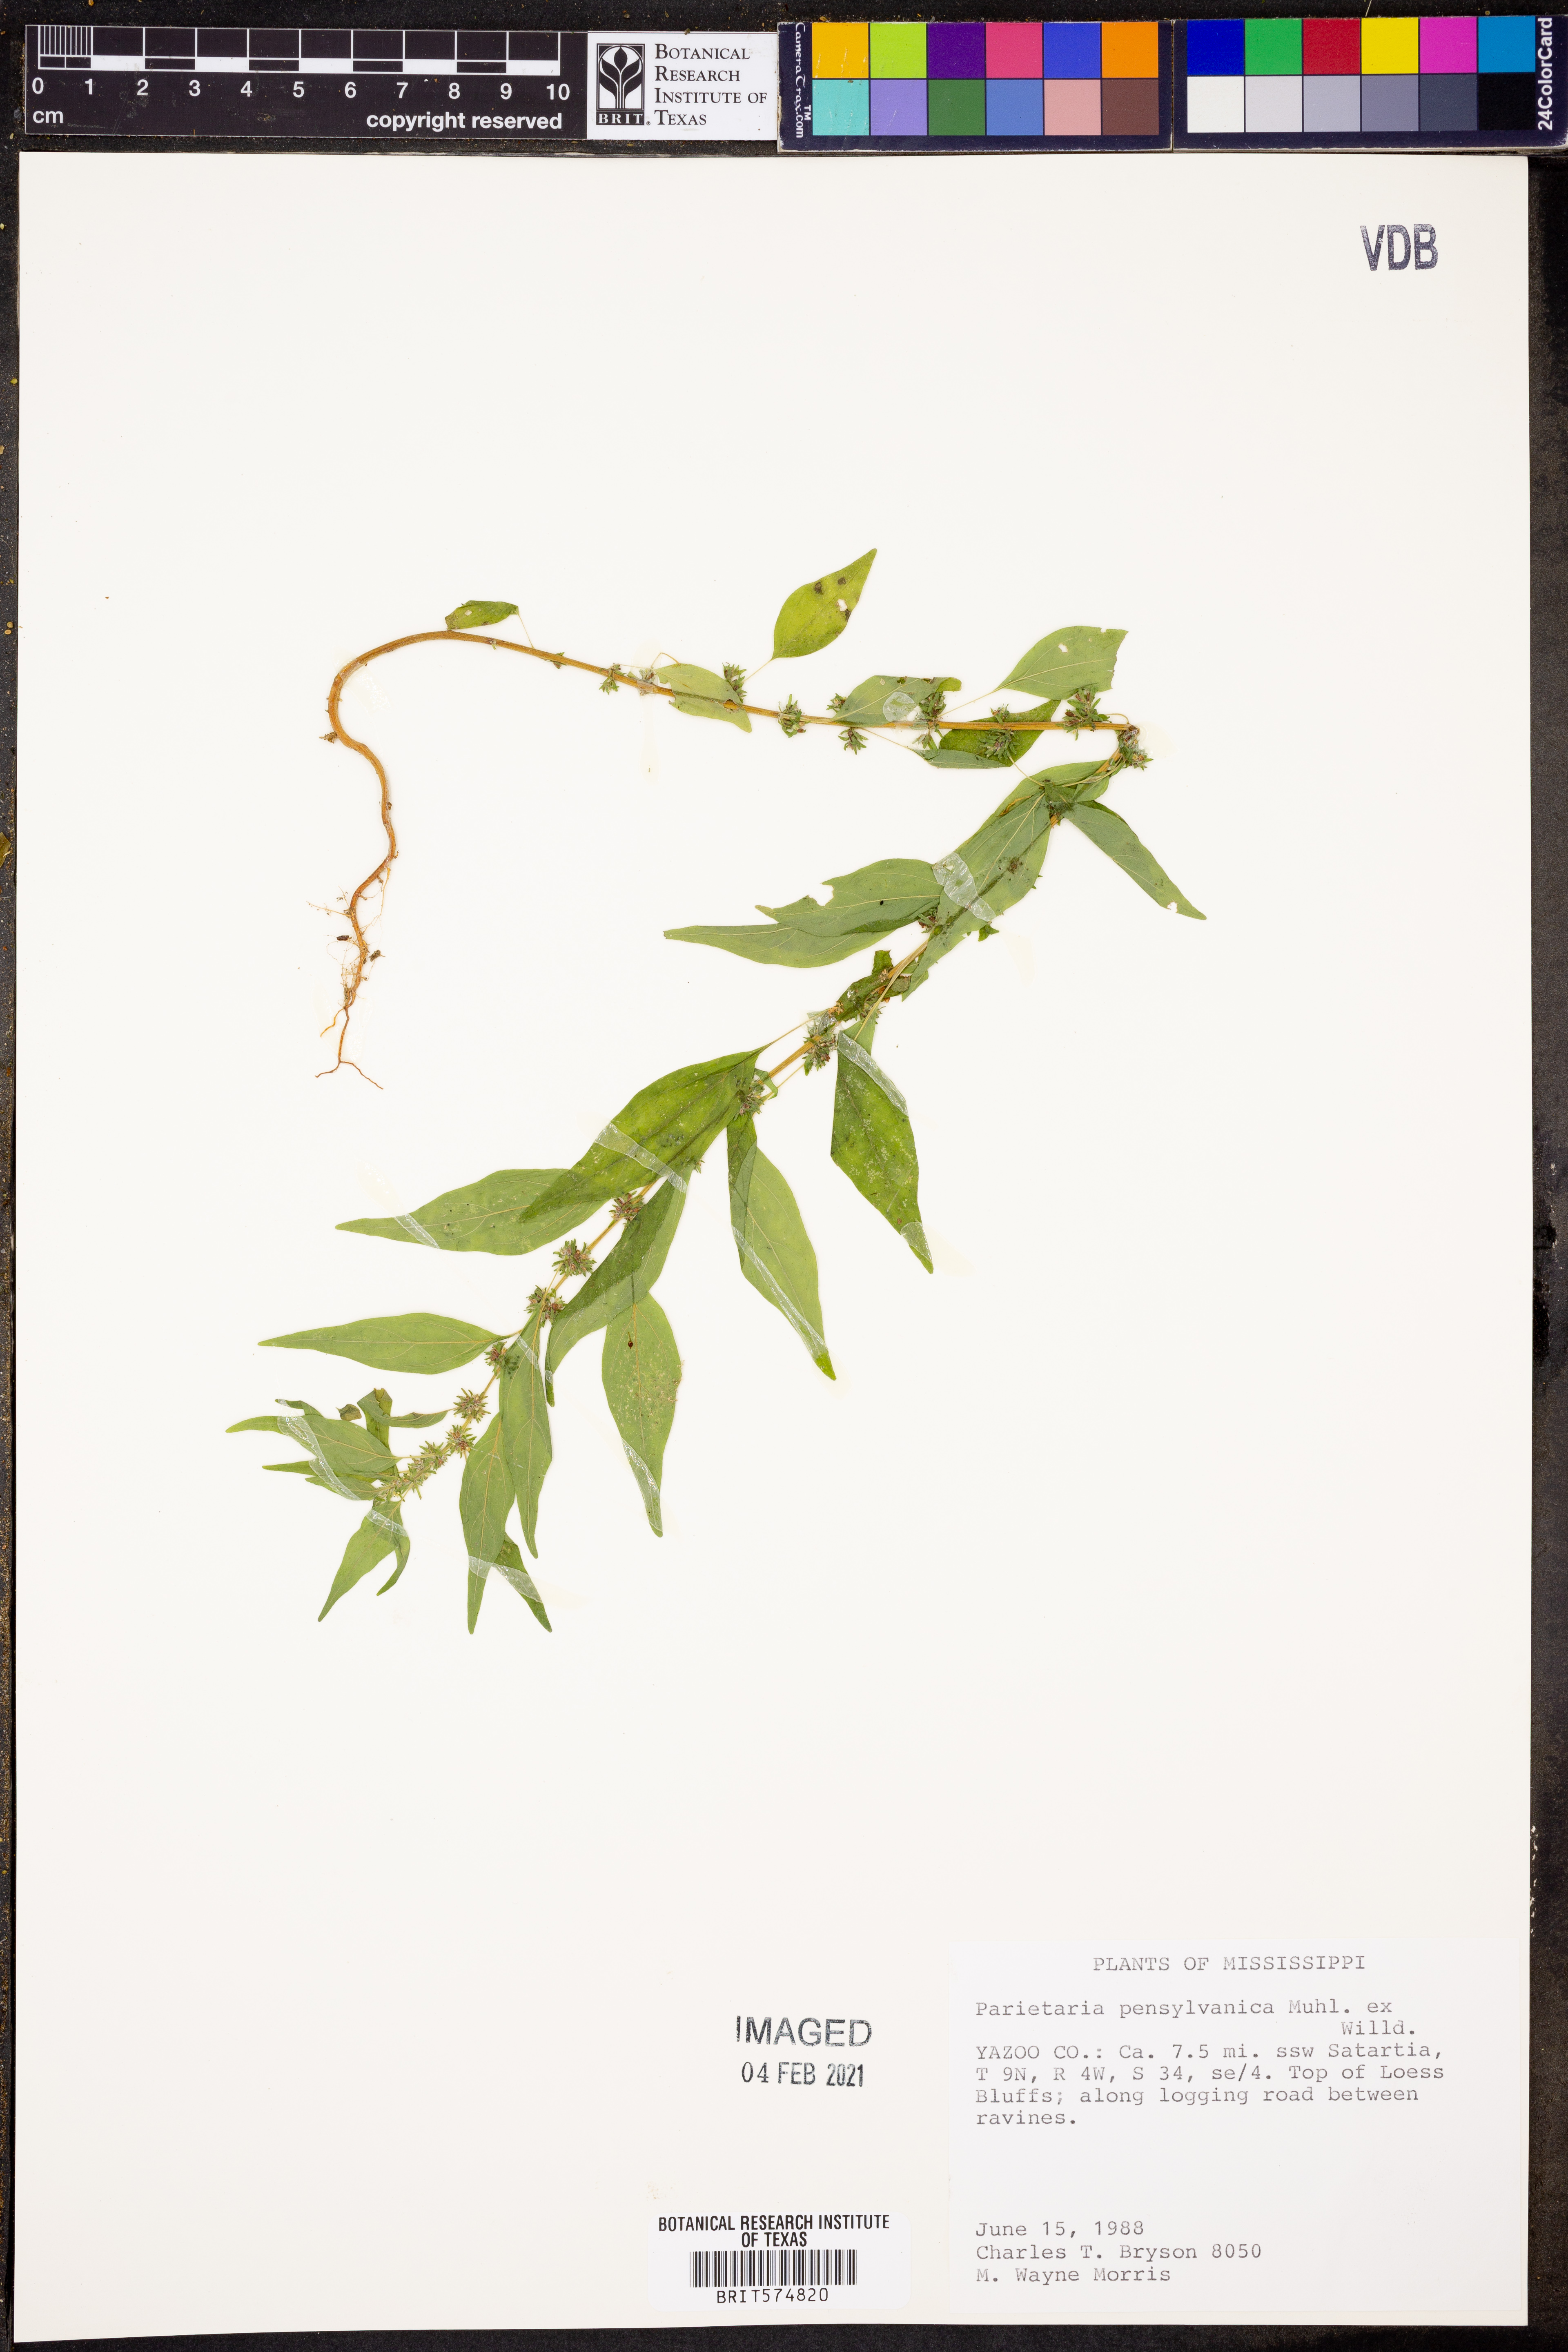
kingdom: Plantae
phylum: Tracheophyta
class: Magnoliopsida
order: Rosales
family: Urticaceae
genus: Parietaria
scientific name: Parietaria pensylvanica
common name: Pennsylvania pellitory
